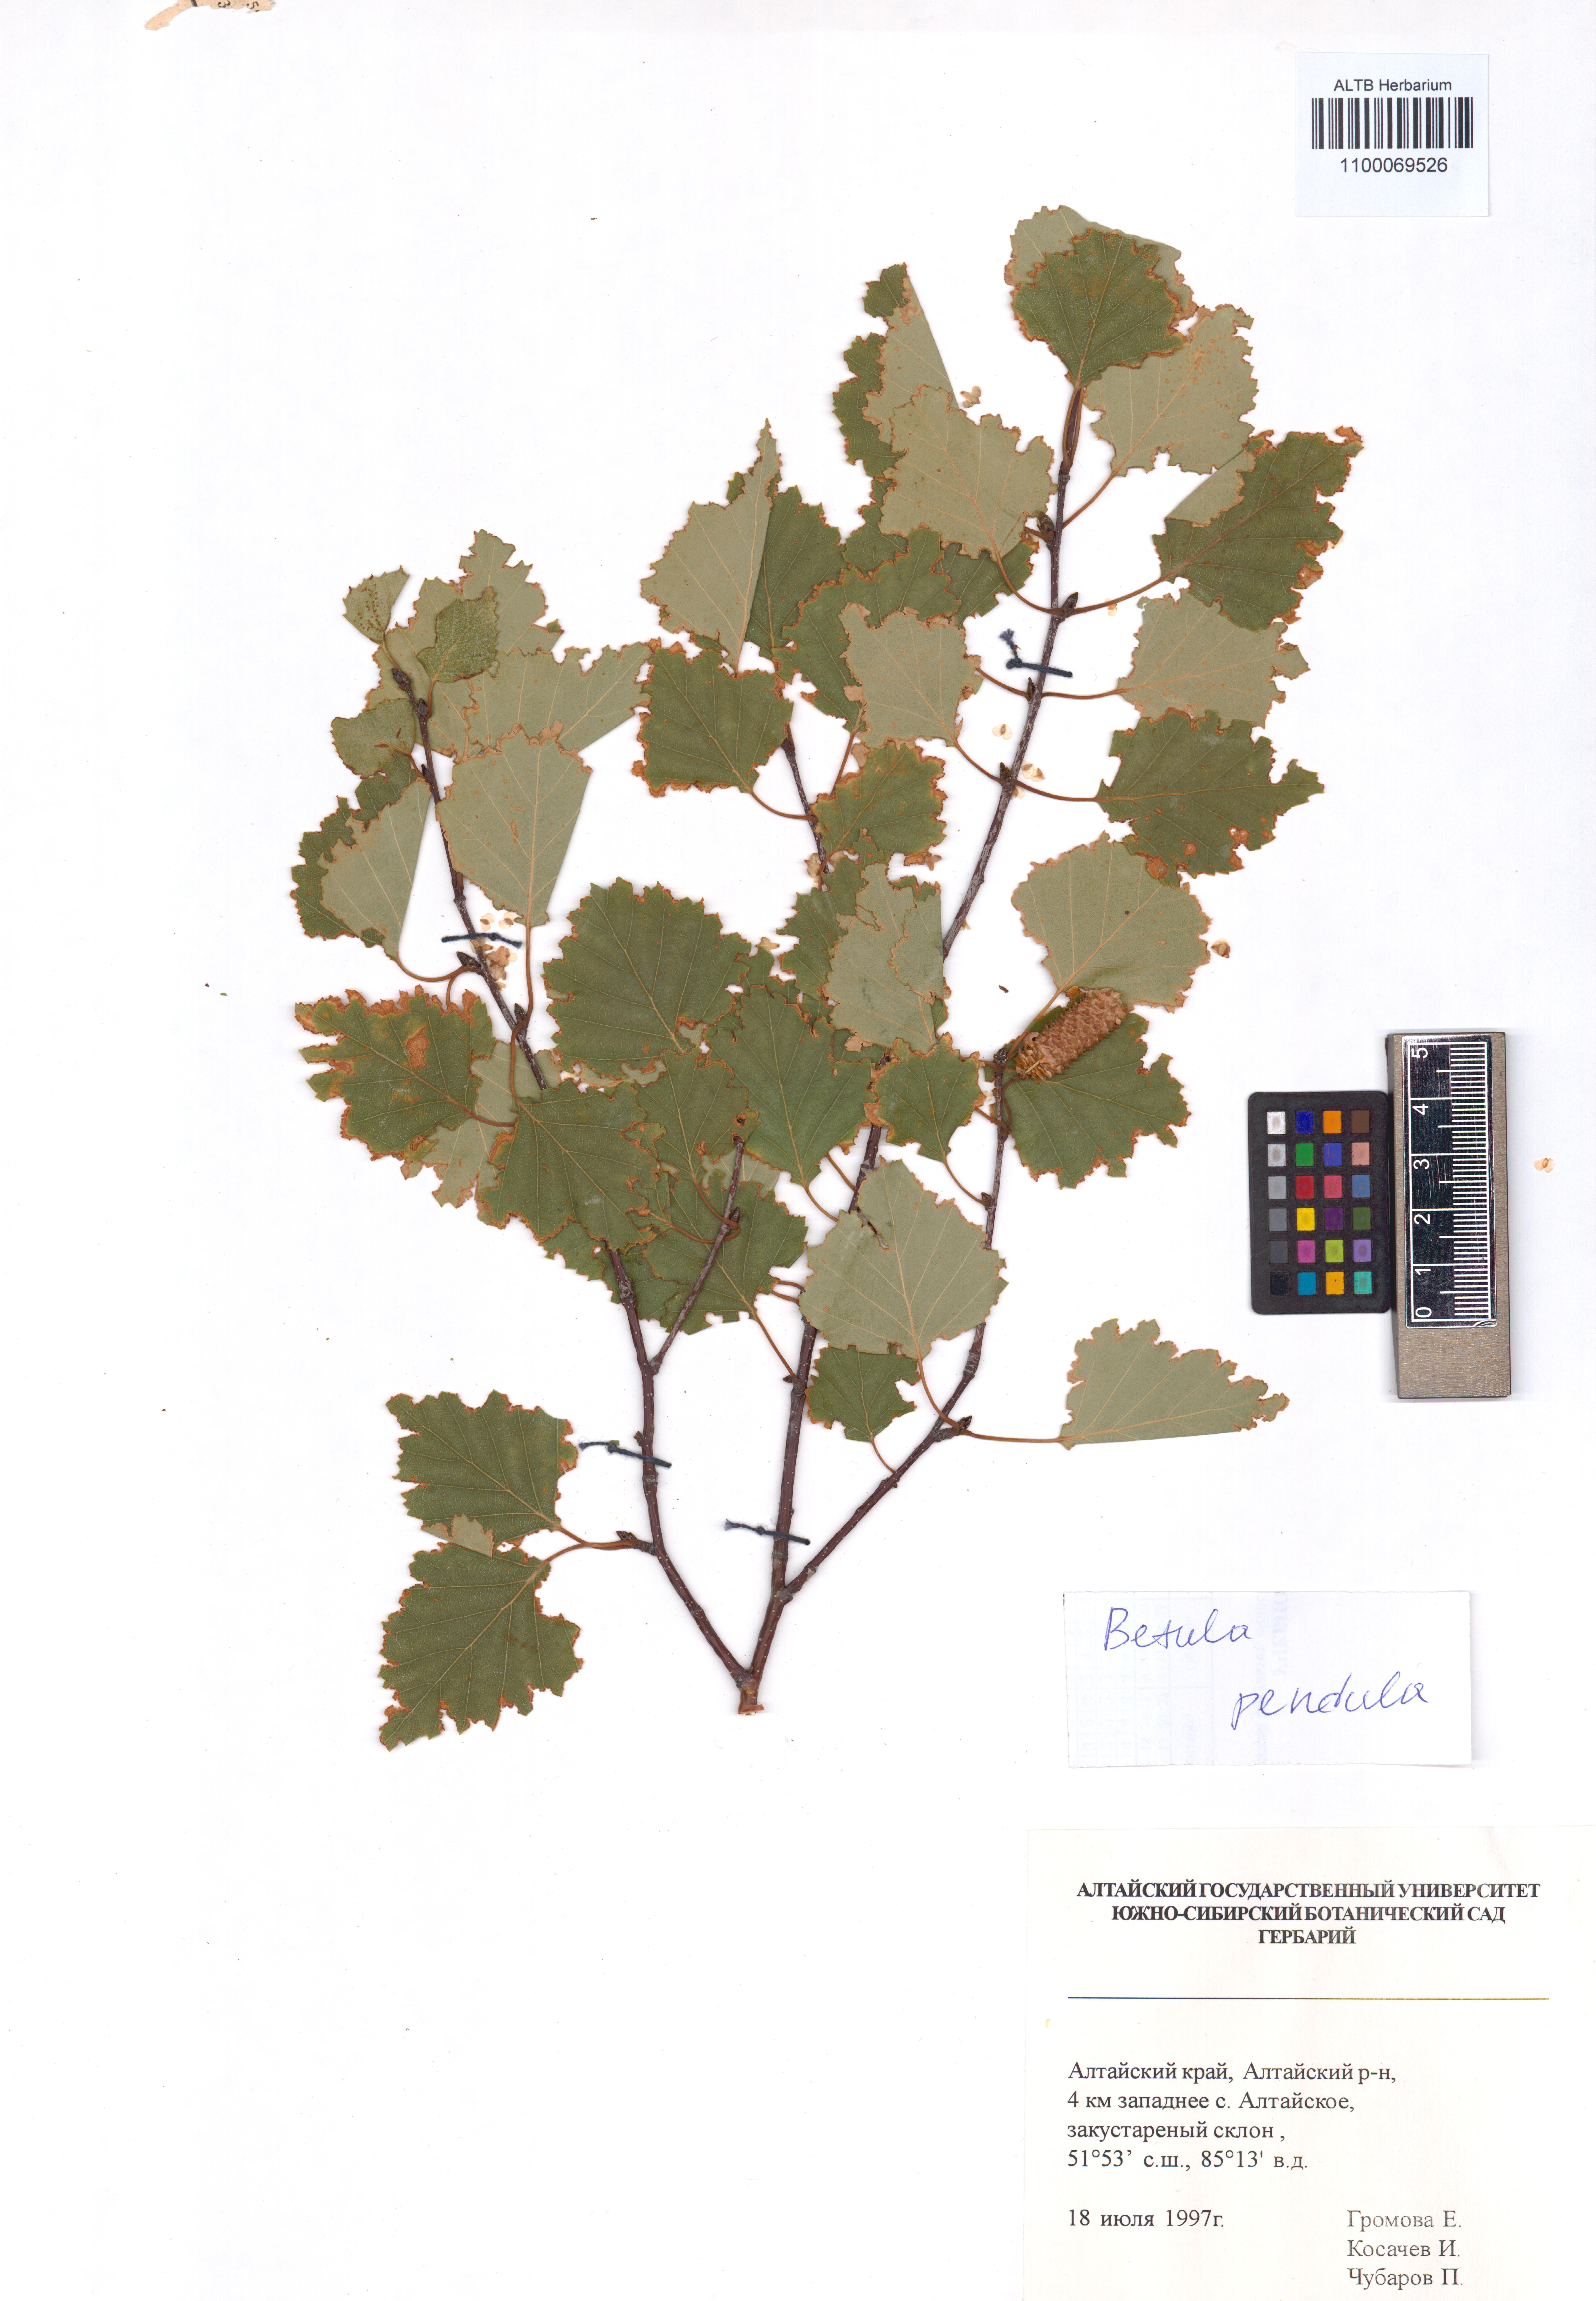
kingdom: Plantae
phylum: Tracheophyta
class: Magnoliopsida
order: Fagales
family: Betulaceae
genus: Betula
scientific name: Betula pendula
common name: Silver birch
